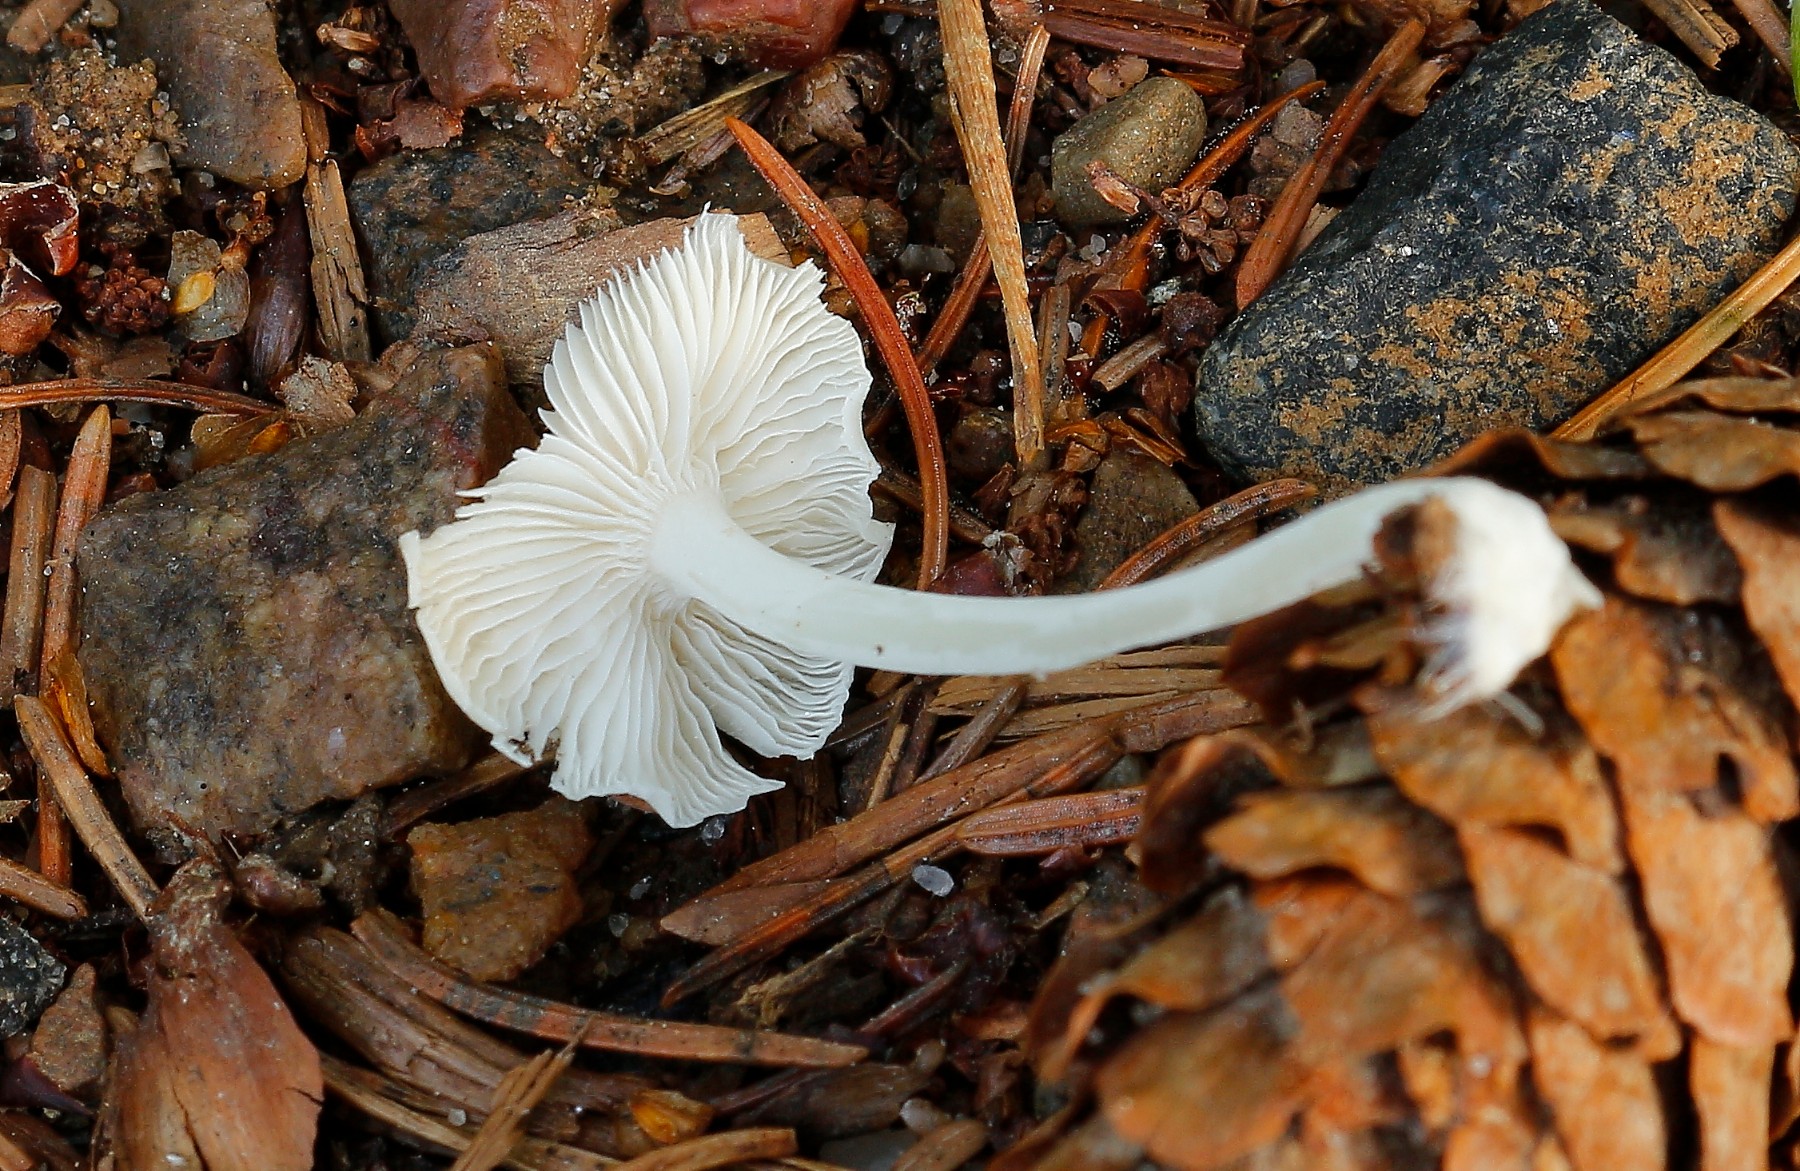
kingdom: Fungi
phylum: Basidiomycota
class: Agaricomycetes
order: Agaricales
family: Mycenaceae
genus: Hemimycena
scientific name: Hemimycena
